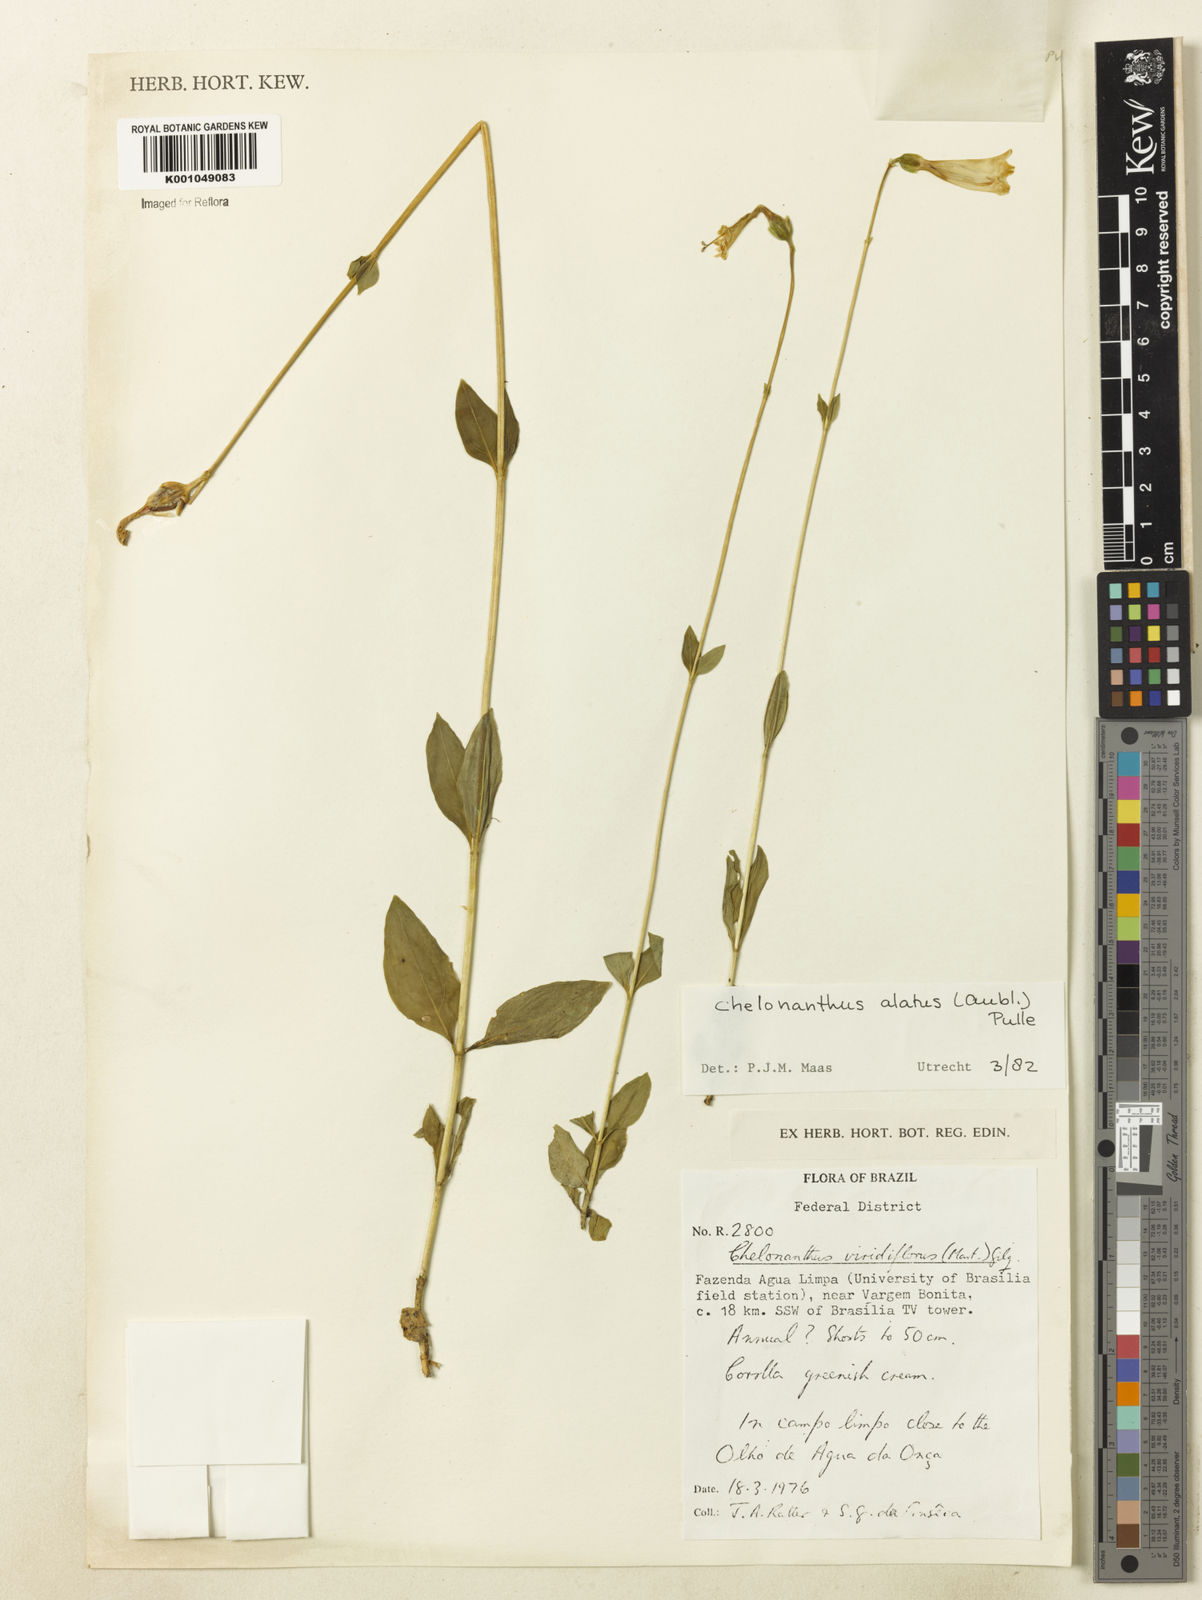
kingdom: Plantae
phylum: Tracheophyta
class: Magnoliopsida
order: Gentianales
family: Gentianaceae
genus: Chelonanthus
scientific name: Chelonanthus alatus
